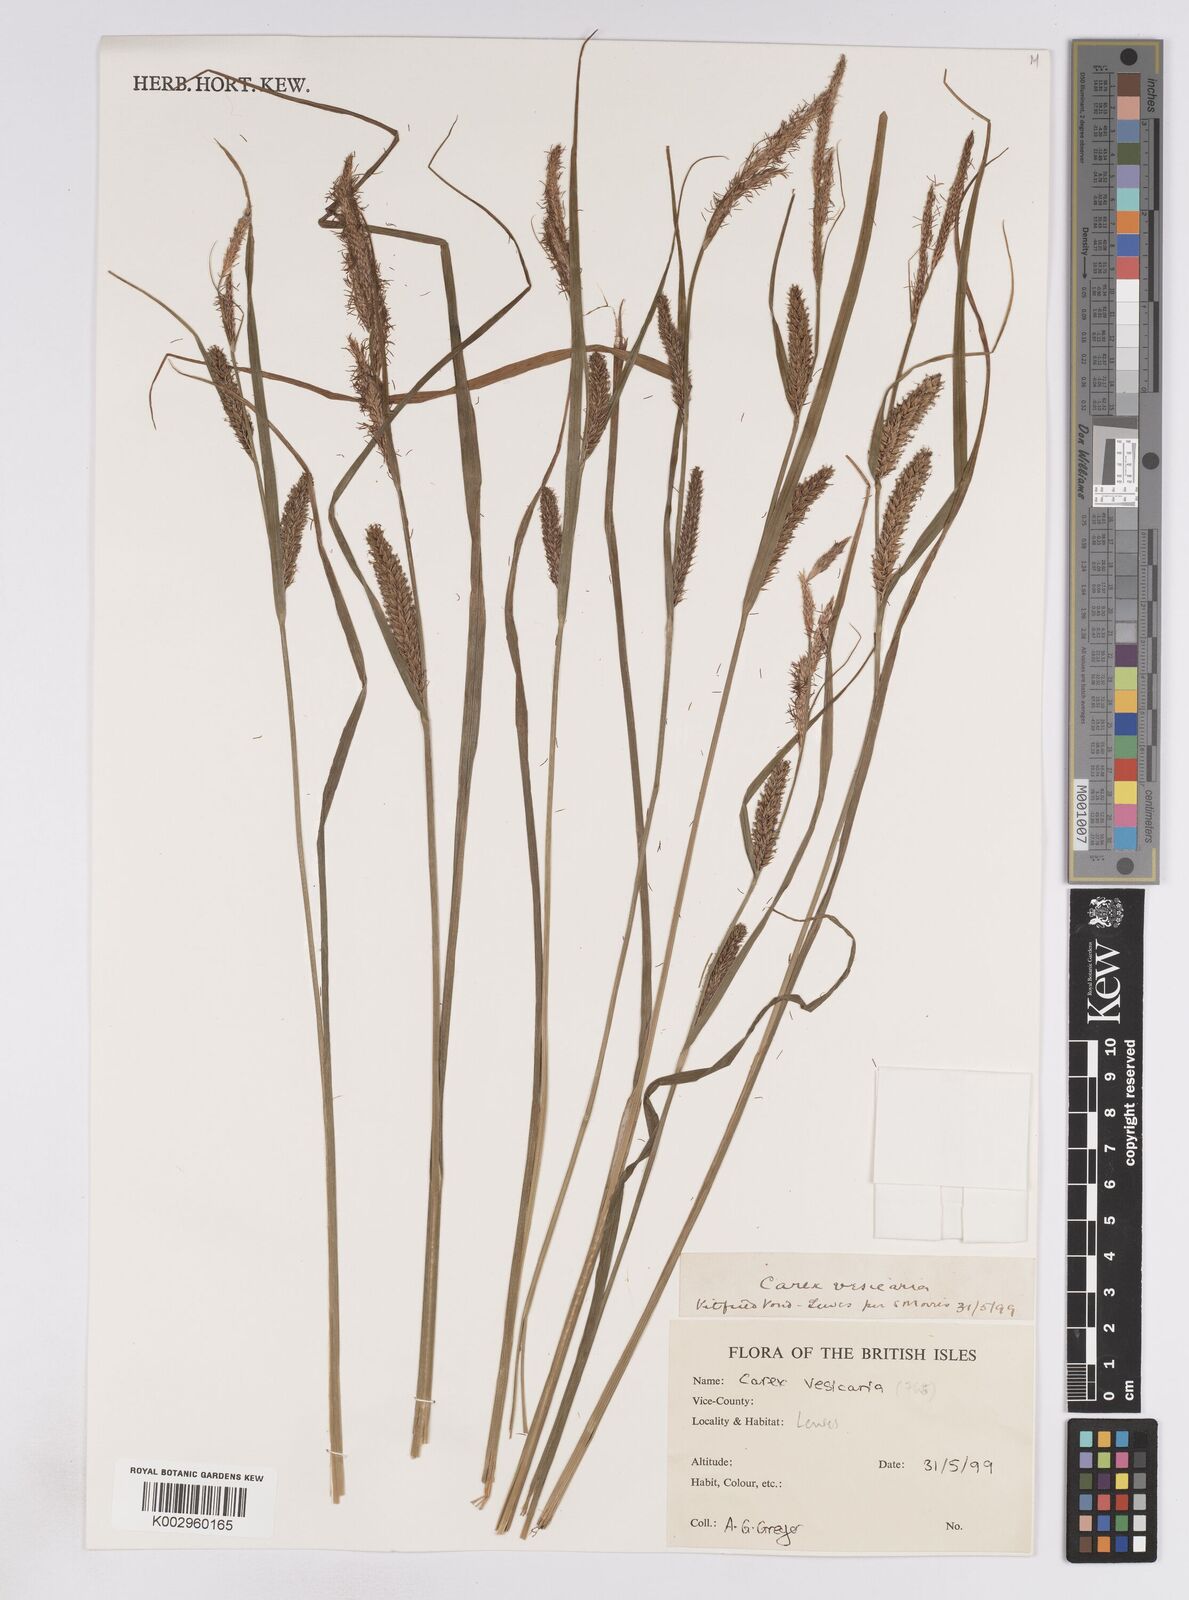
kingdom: Plantae
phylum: Tracheophyta
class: Liliopsida
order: Poales
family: Cyperaceae
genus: Carex
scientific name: Carex vesicaria
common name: Bladder-sedge
